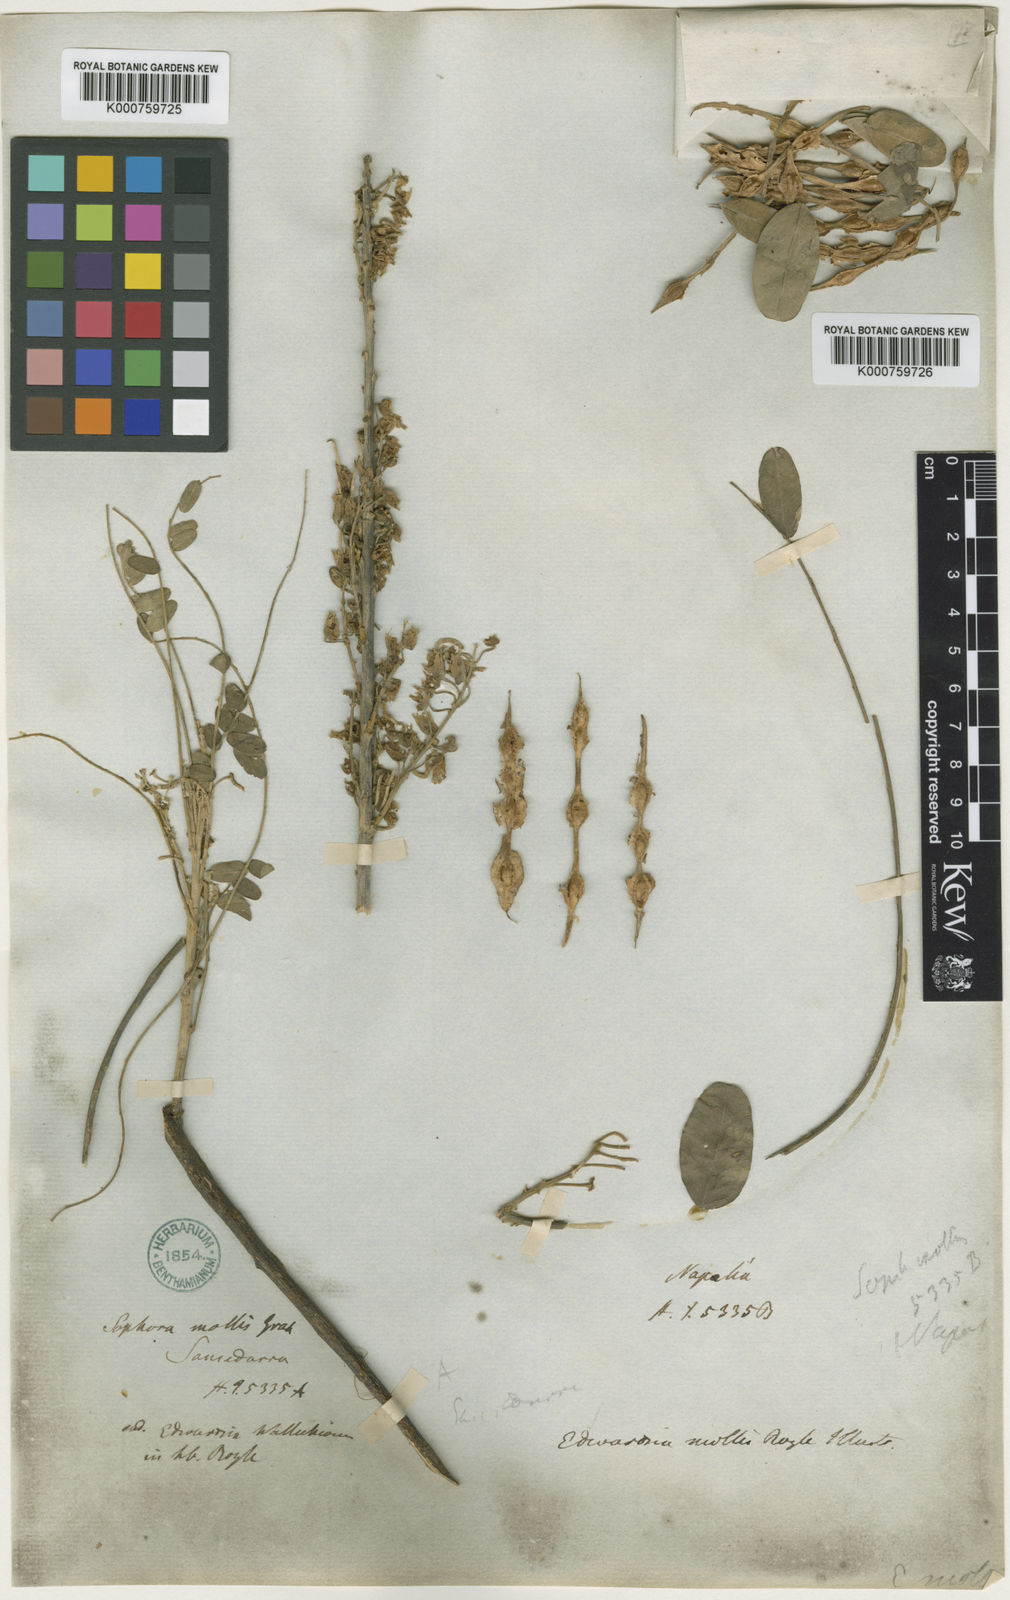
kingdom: Plantae
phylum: Tracheophyta
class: Magnoliopsida
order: Fabales
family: Fabaceae
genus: Sophora
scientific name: Sophora
